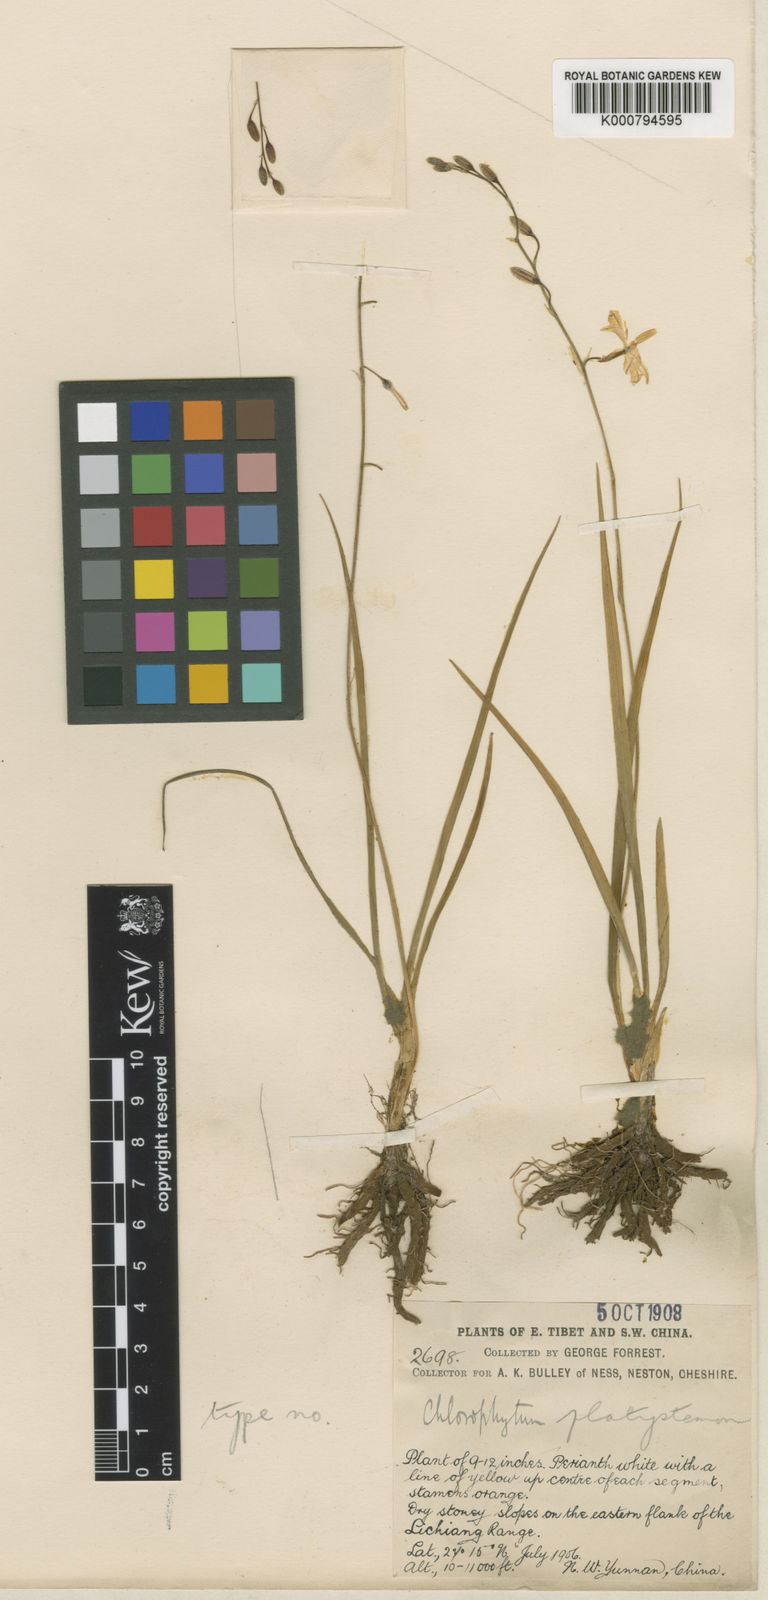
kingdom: Plantae
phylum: Tracheophyta
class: Liliopsida
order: Asparagales
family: Asparagaceae
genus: Chlorophytum
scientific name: Chlorophytum chinense
